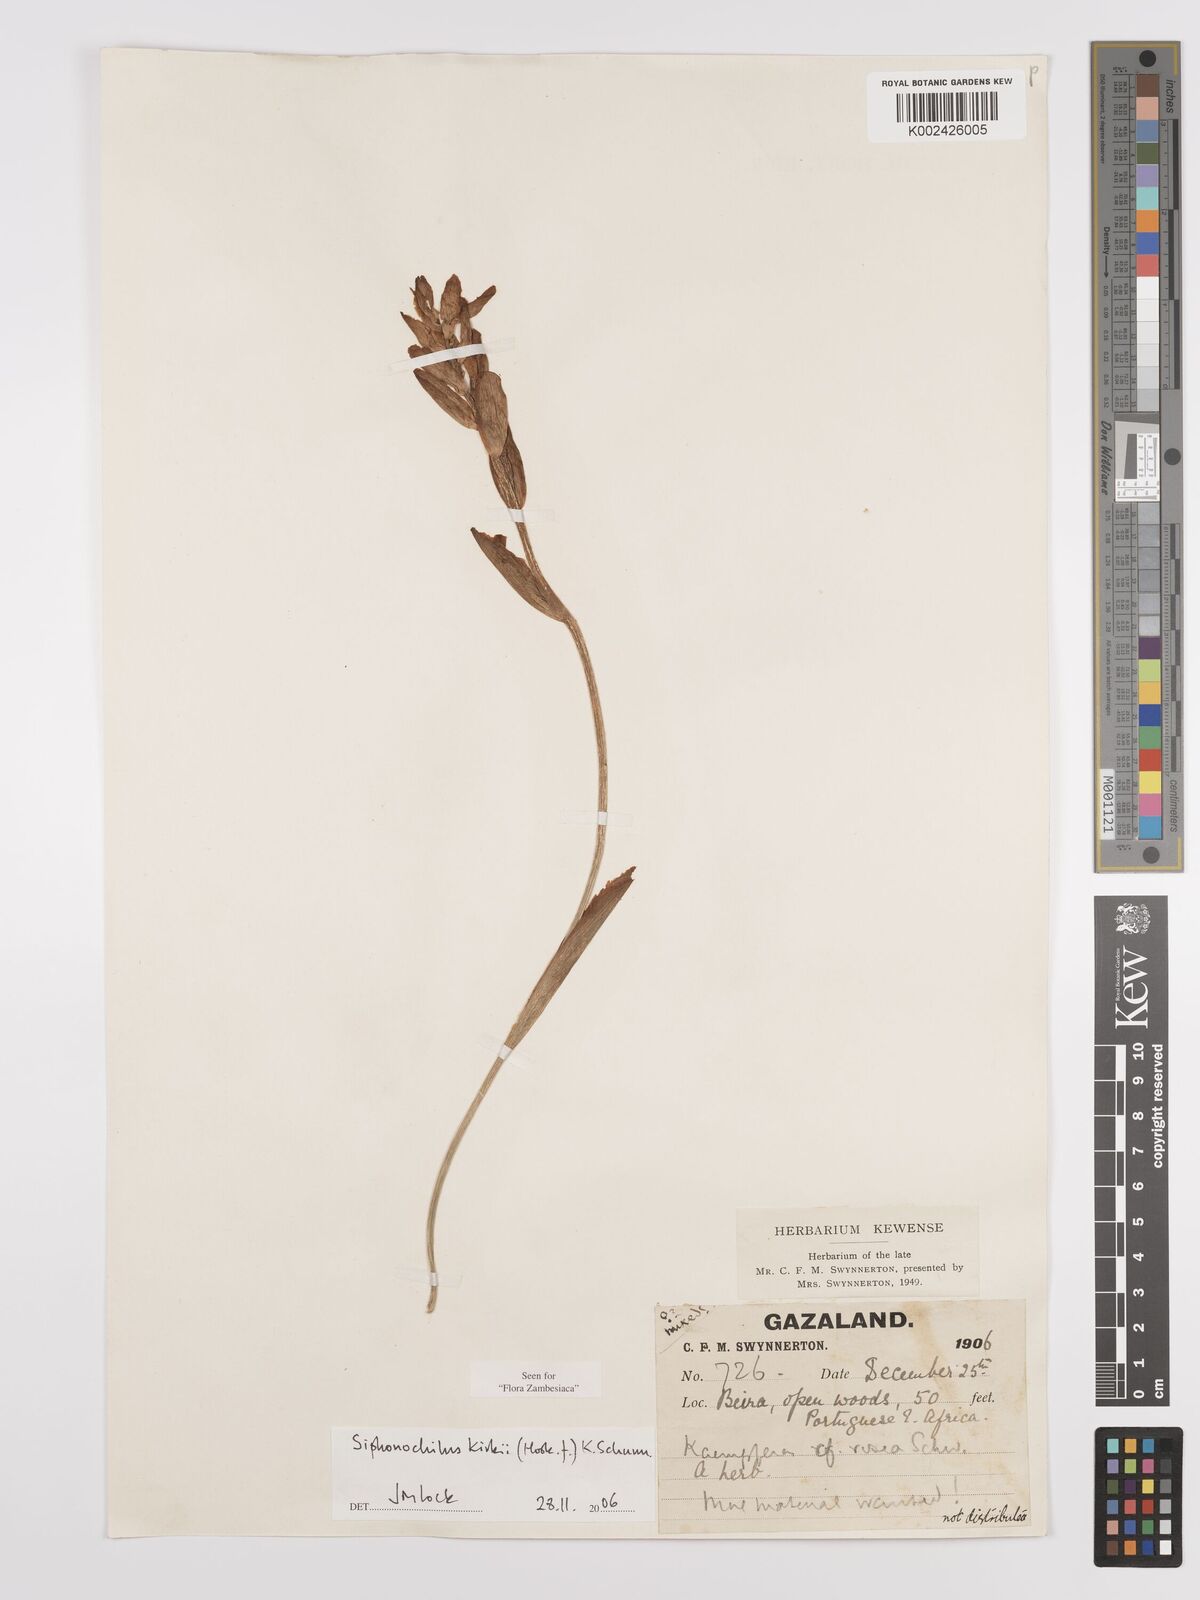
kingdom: Plantae
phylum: Tracheophyta
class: Liliopsida
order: Zingiberales
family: Zingiberaceae
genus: Siphonochilus
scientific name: Siphonochilus kirkii
